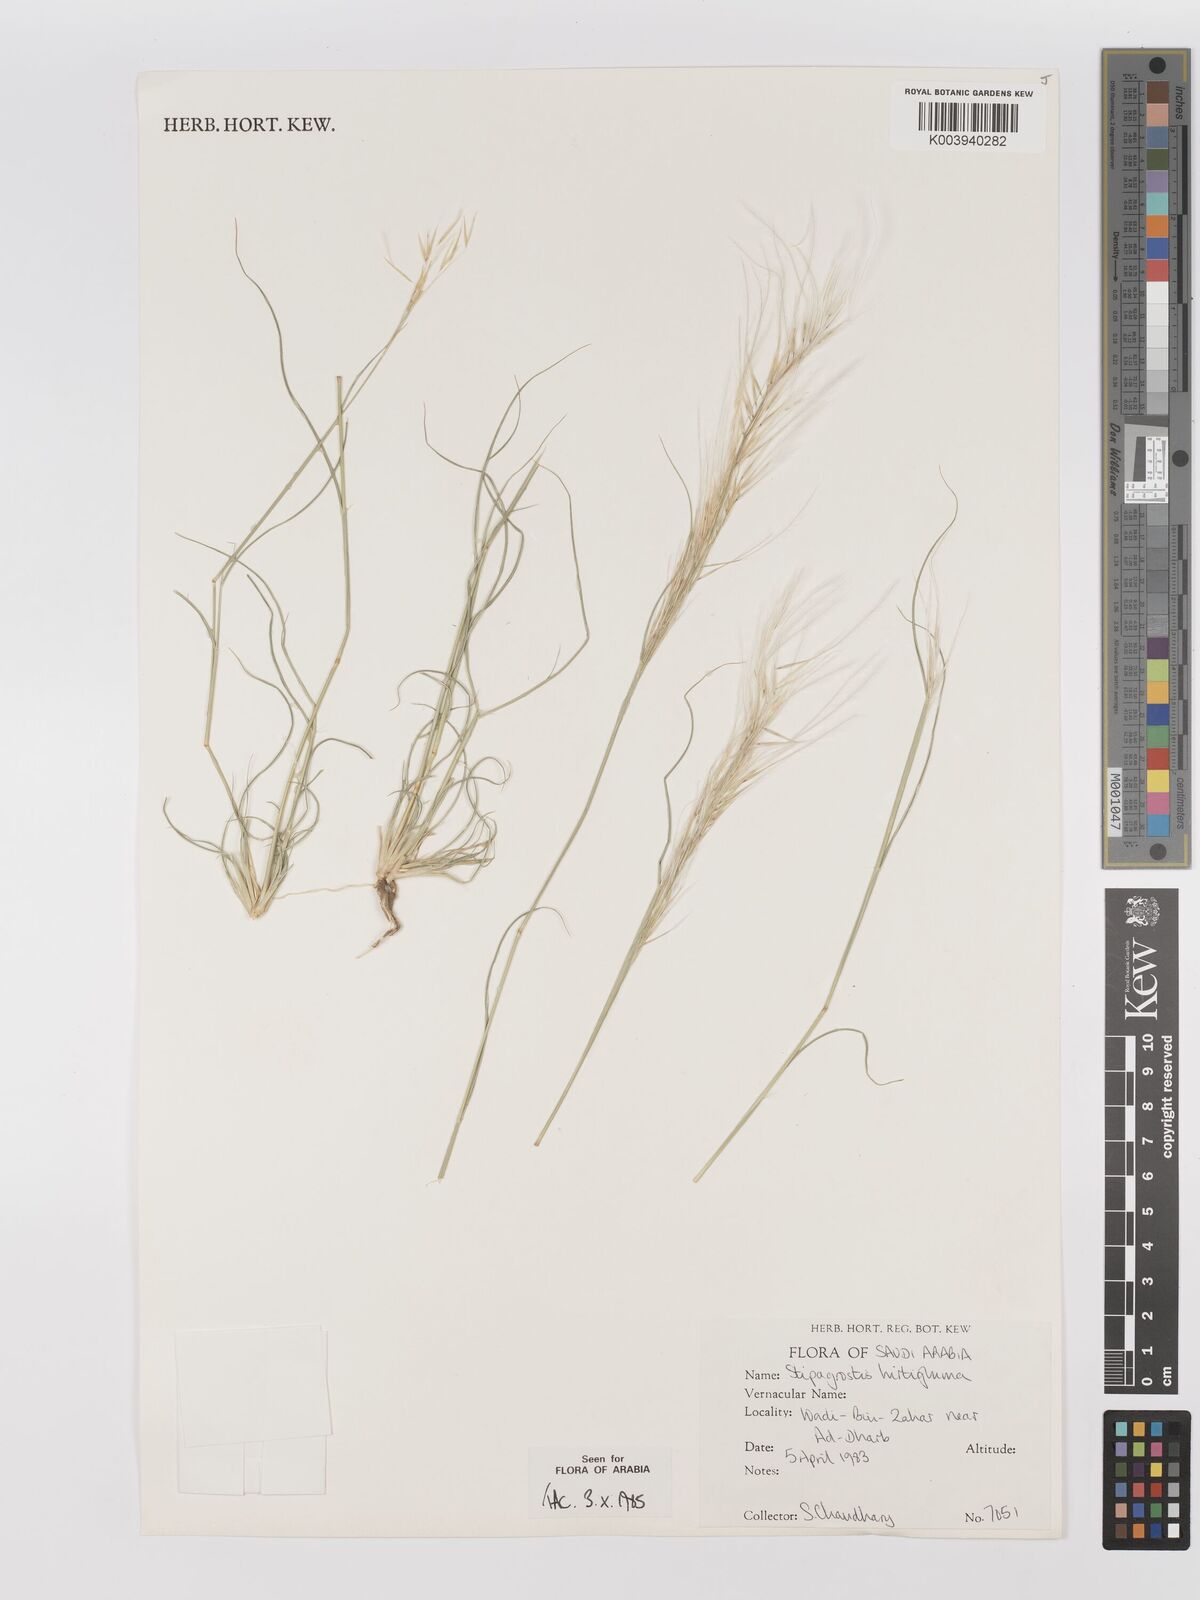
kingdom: Plantae
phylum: Tracheophyta
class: Liliopsida
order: Poales
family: Poaceae
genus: Stipagrostis
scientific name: Stipagrostis hirtigluma
